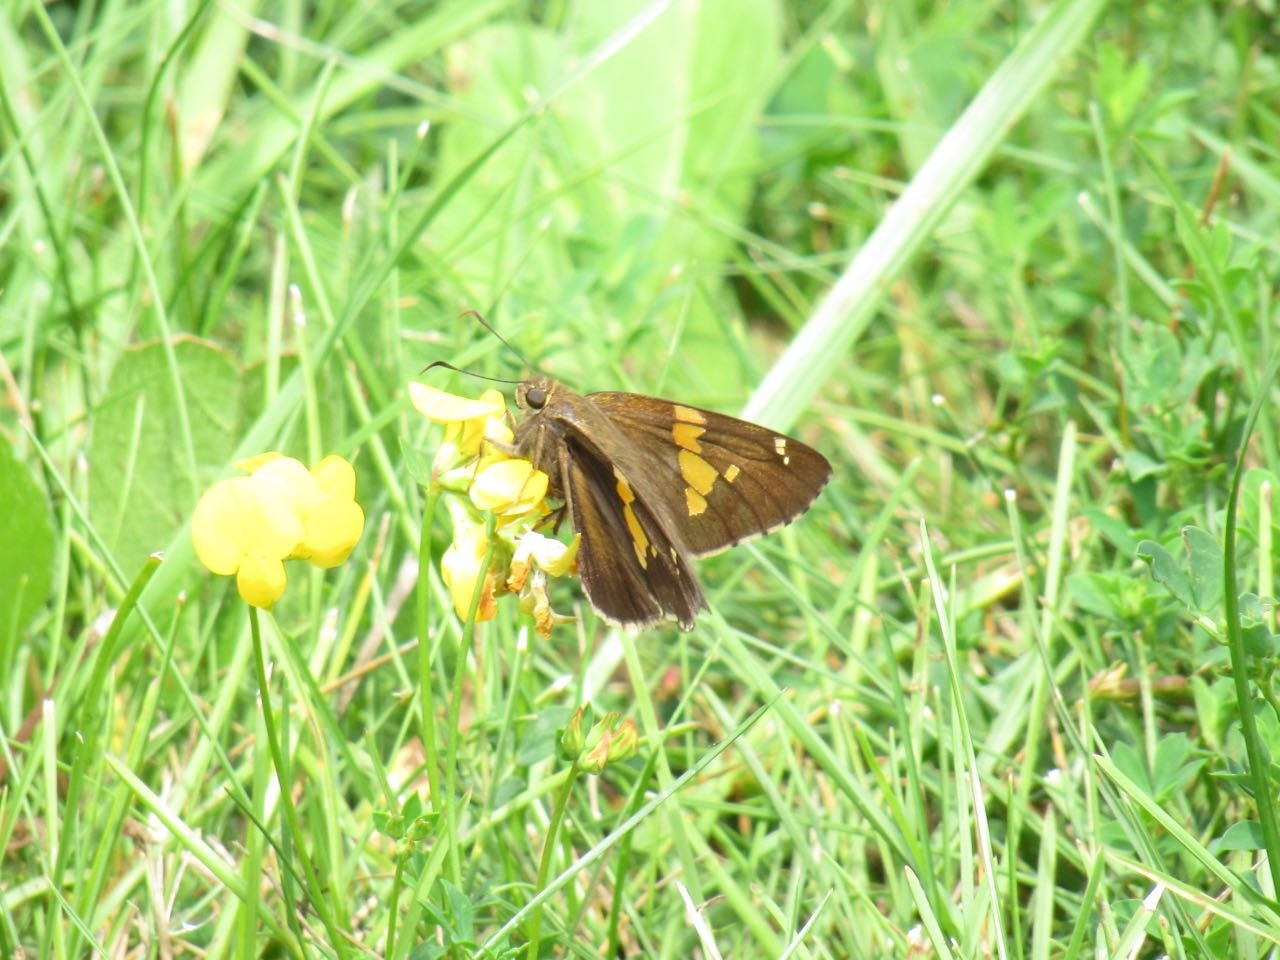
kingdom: Animalia
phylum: Arthropoda
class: Insecta
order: Lepidoptera
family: Hesperiidae
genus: Epargyreus
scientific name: Epargyreus clarus
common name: Silver-spotted Skipper
